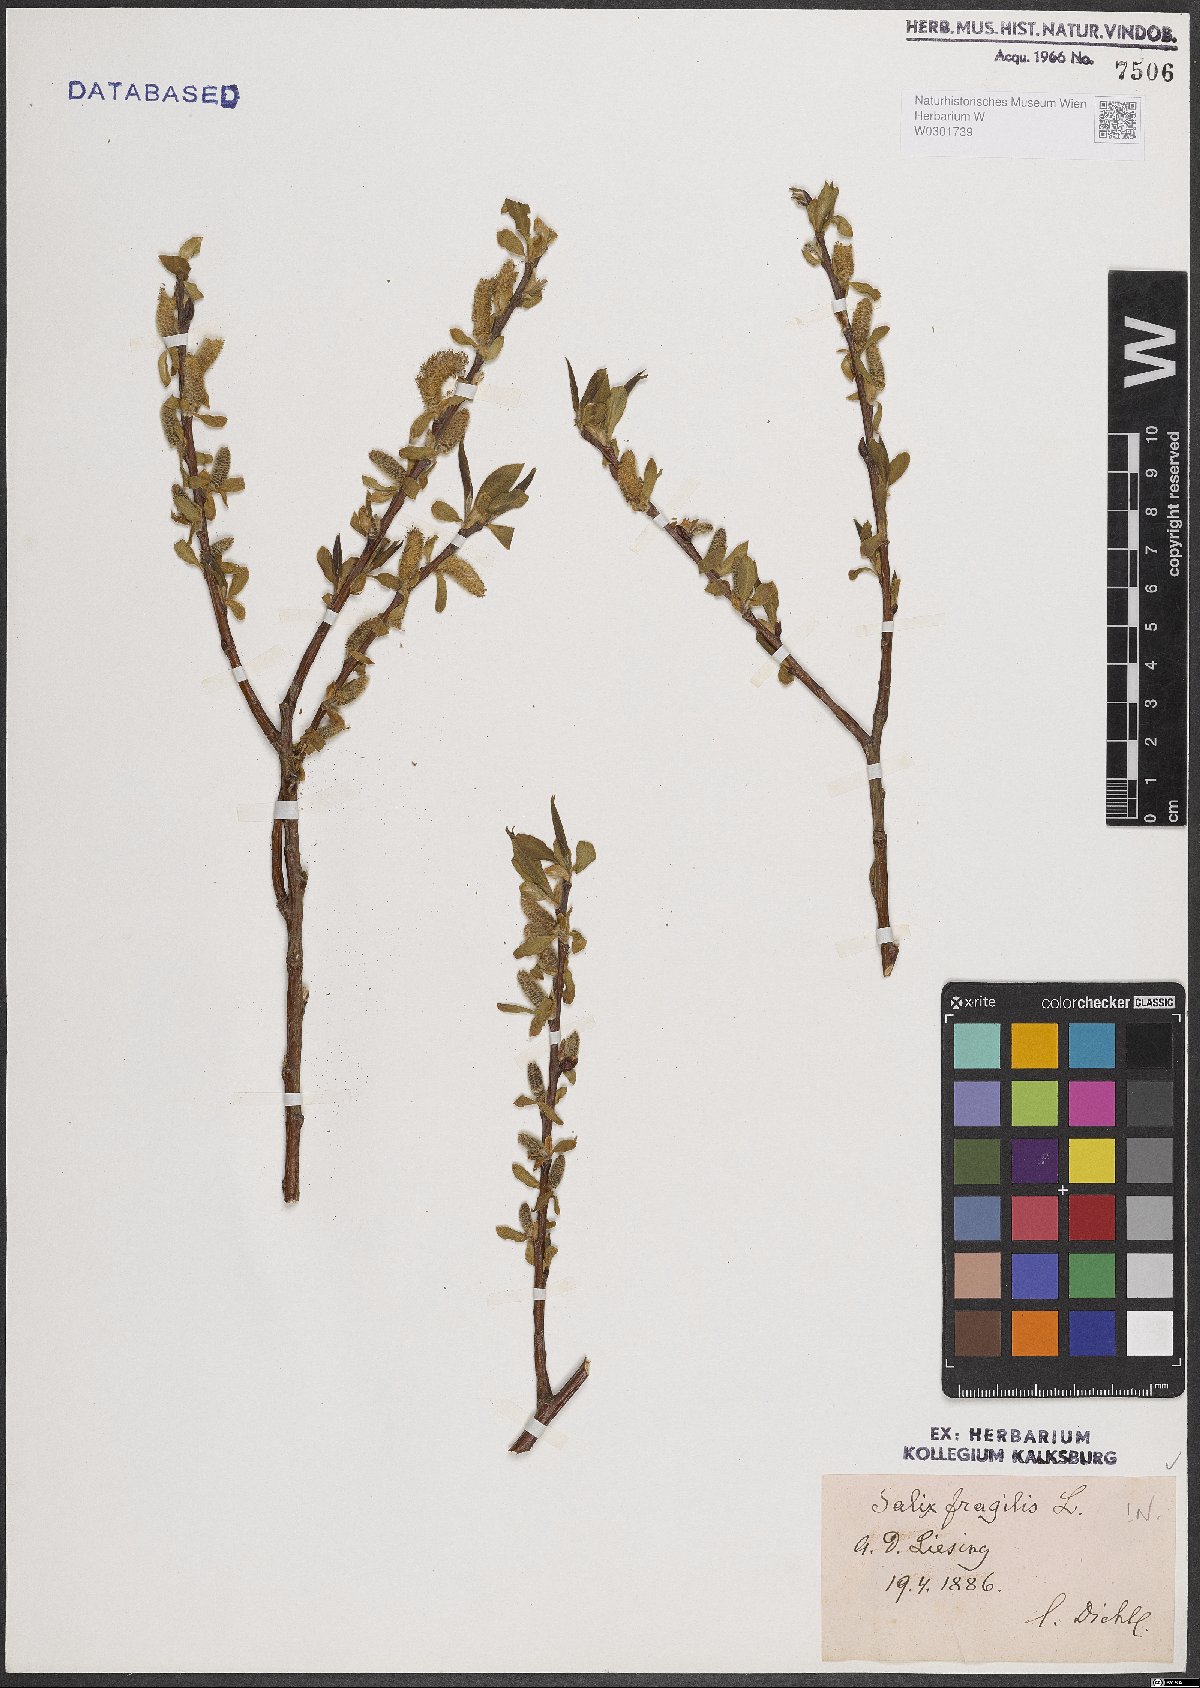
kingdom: Plantae
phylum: Tracheophyta
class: Magnoliopsida
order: Malpighiales
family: Salicaceae
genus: Salix
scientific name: Salix fragilis
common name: Crack willow
